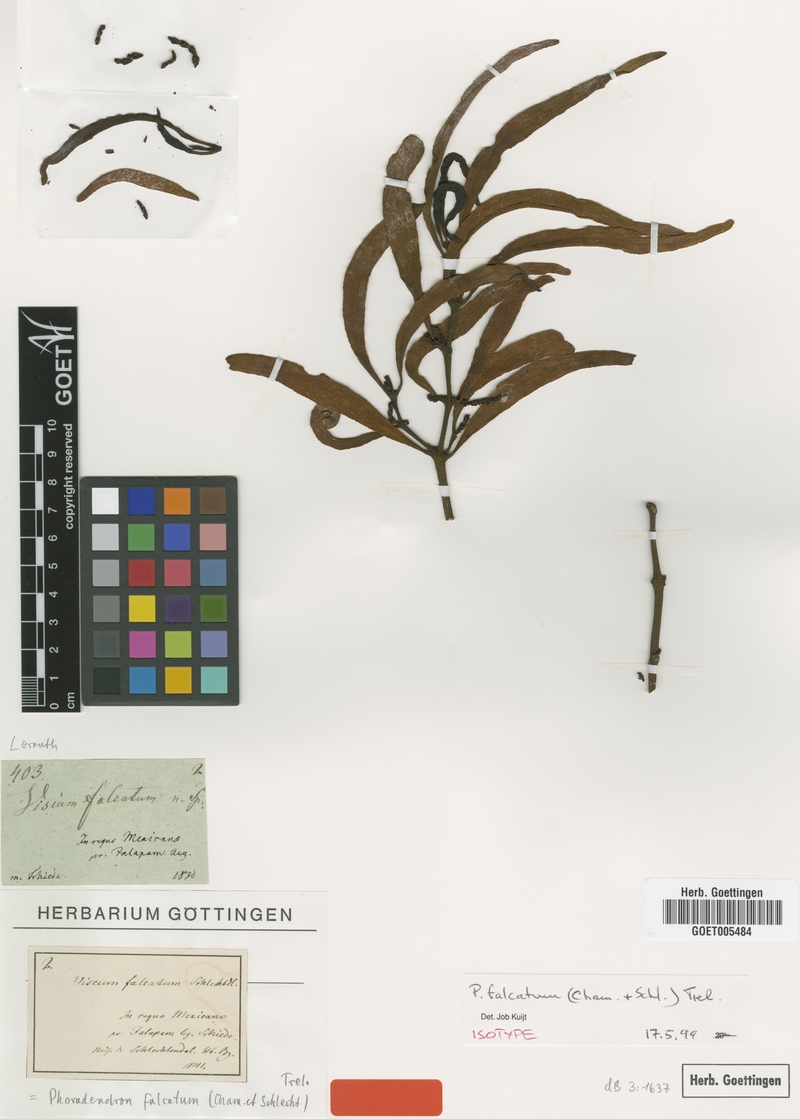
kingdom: Plantae
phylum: Tracheophyta
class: Magnoliopsida
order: Santalales
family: Viscaceae
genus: Phoradendron
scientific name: Phoradendron falcifer
